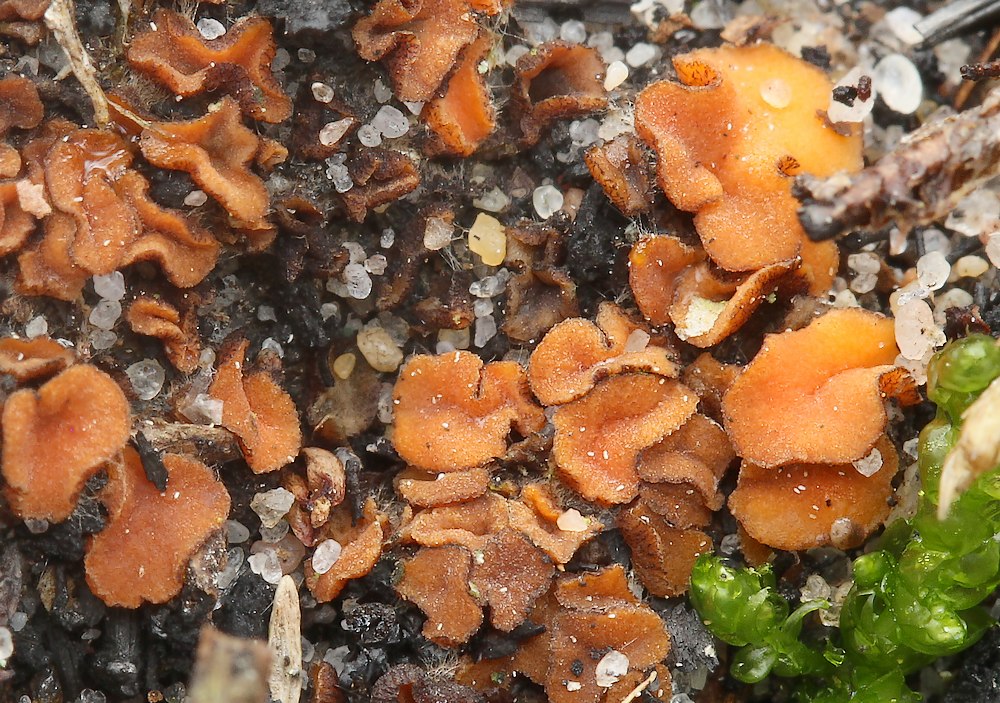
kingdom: Fungi
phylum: Ascomycota
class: Pezizomycetes
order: Pezizales
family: Pyronemataceae
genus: Anthracobia
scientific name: Anthracobia
